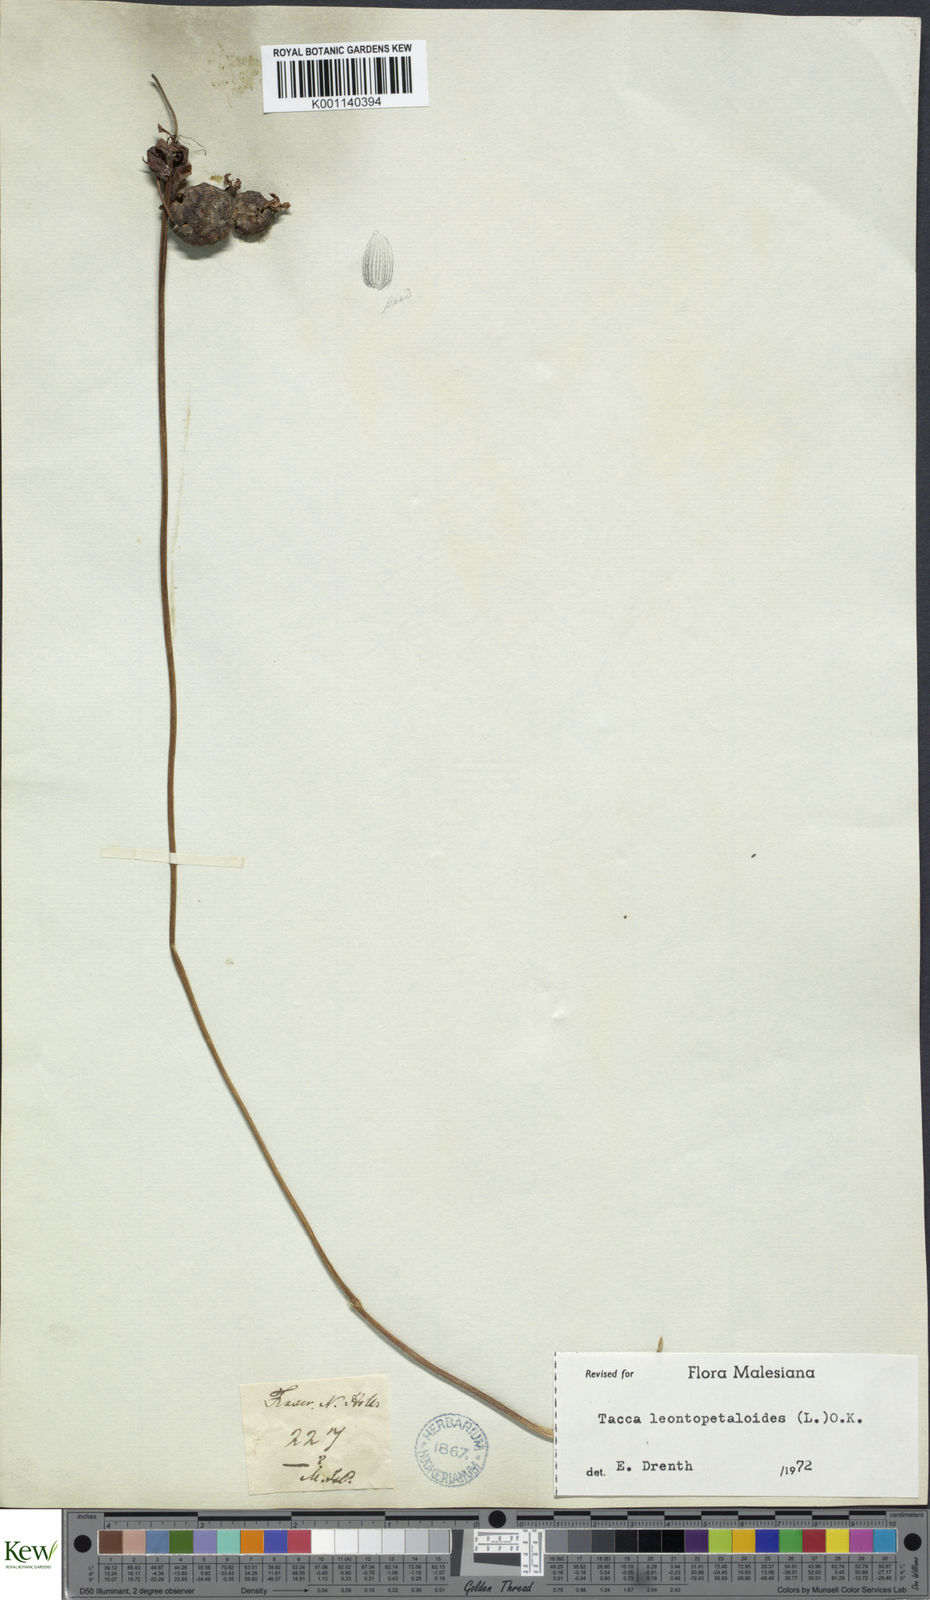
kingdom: Plantae
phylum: Tracheophyta
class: Liliopsida
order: Dioscoreales
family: Dioscoreaceae
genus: Tacca
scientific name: Tacca leontopetaloides
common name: Arrowroot
